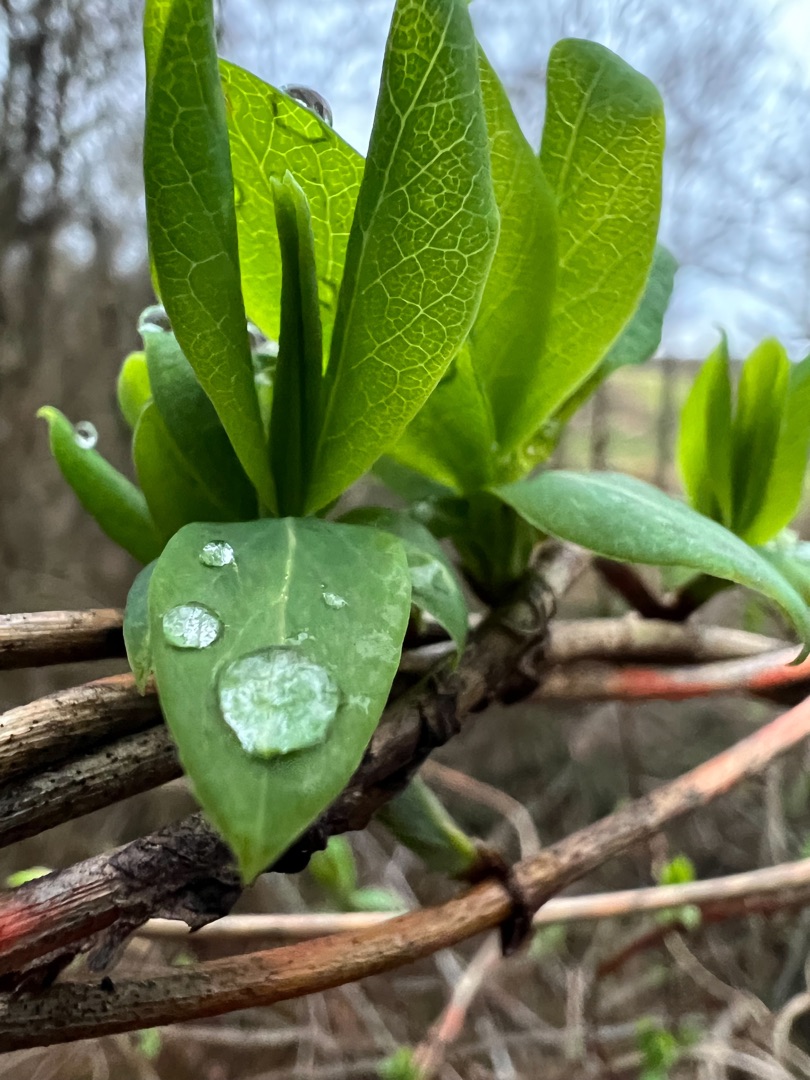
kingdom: Plantae
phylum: Tracheophyta
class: Magnoliopsida
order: Dipsacales
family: Caprifoliaceae
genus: Lonicera
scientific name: Lonicera periclymenum
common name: Almindelig gedeblad
